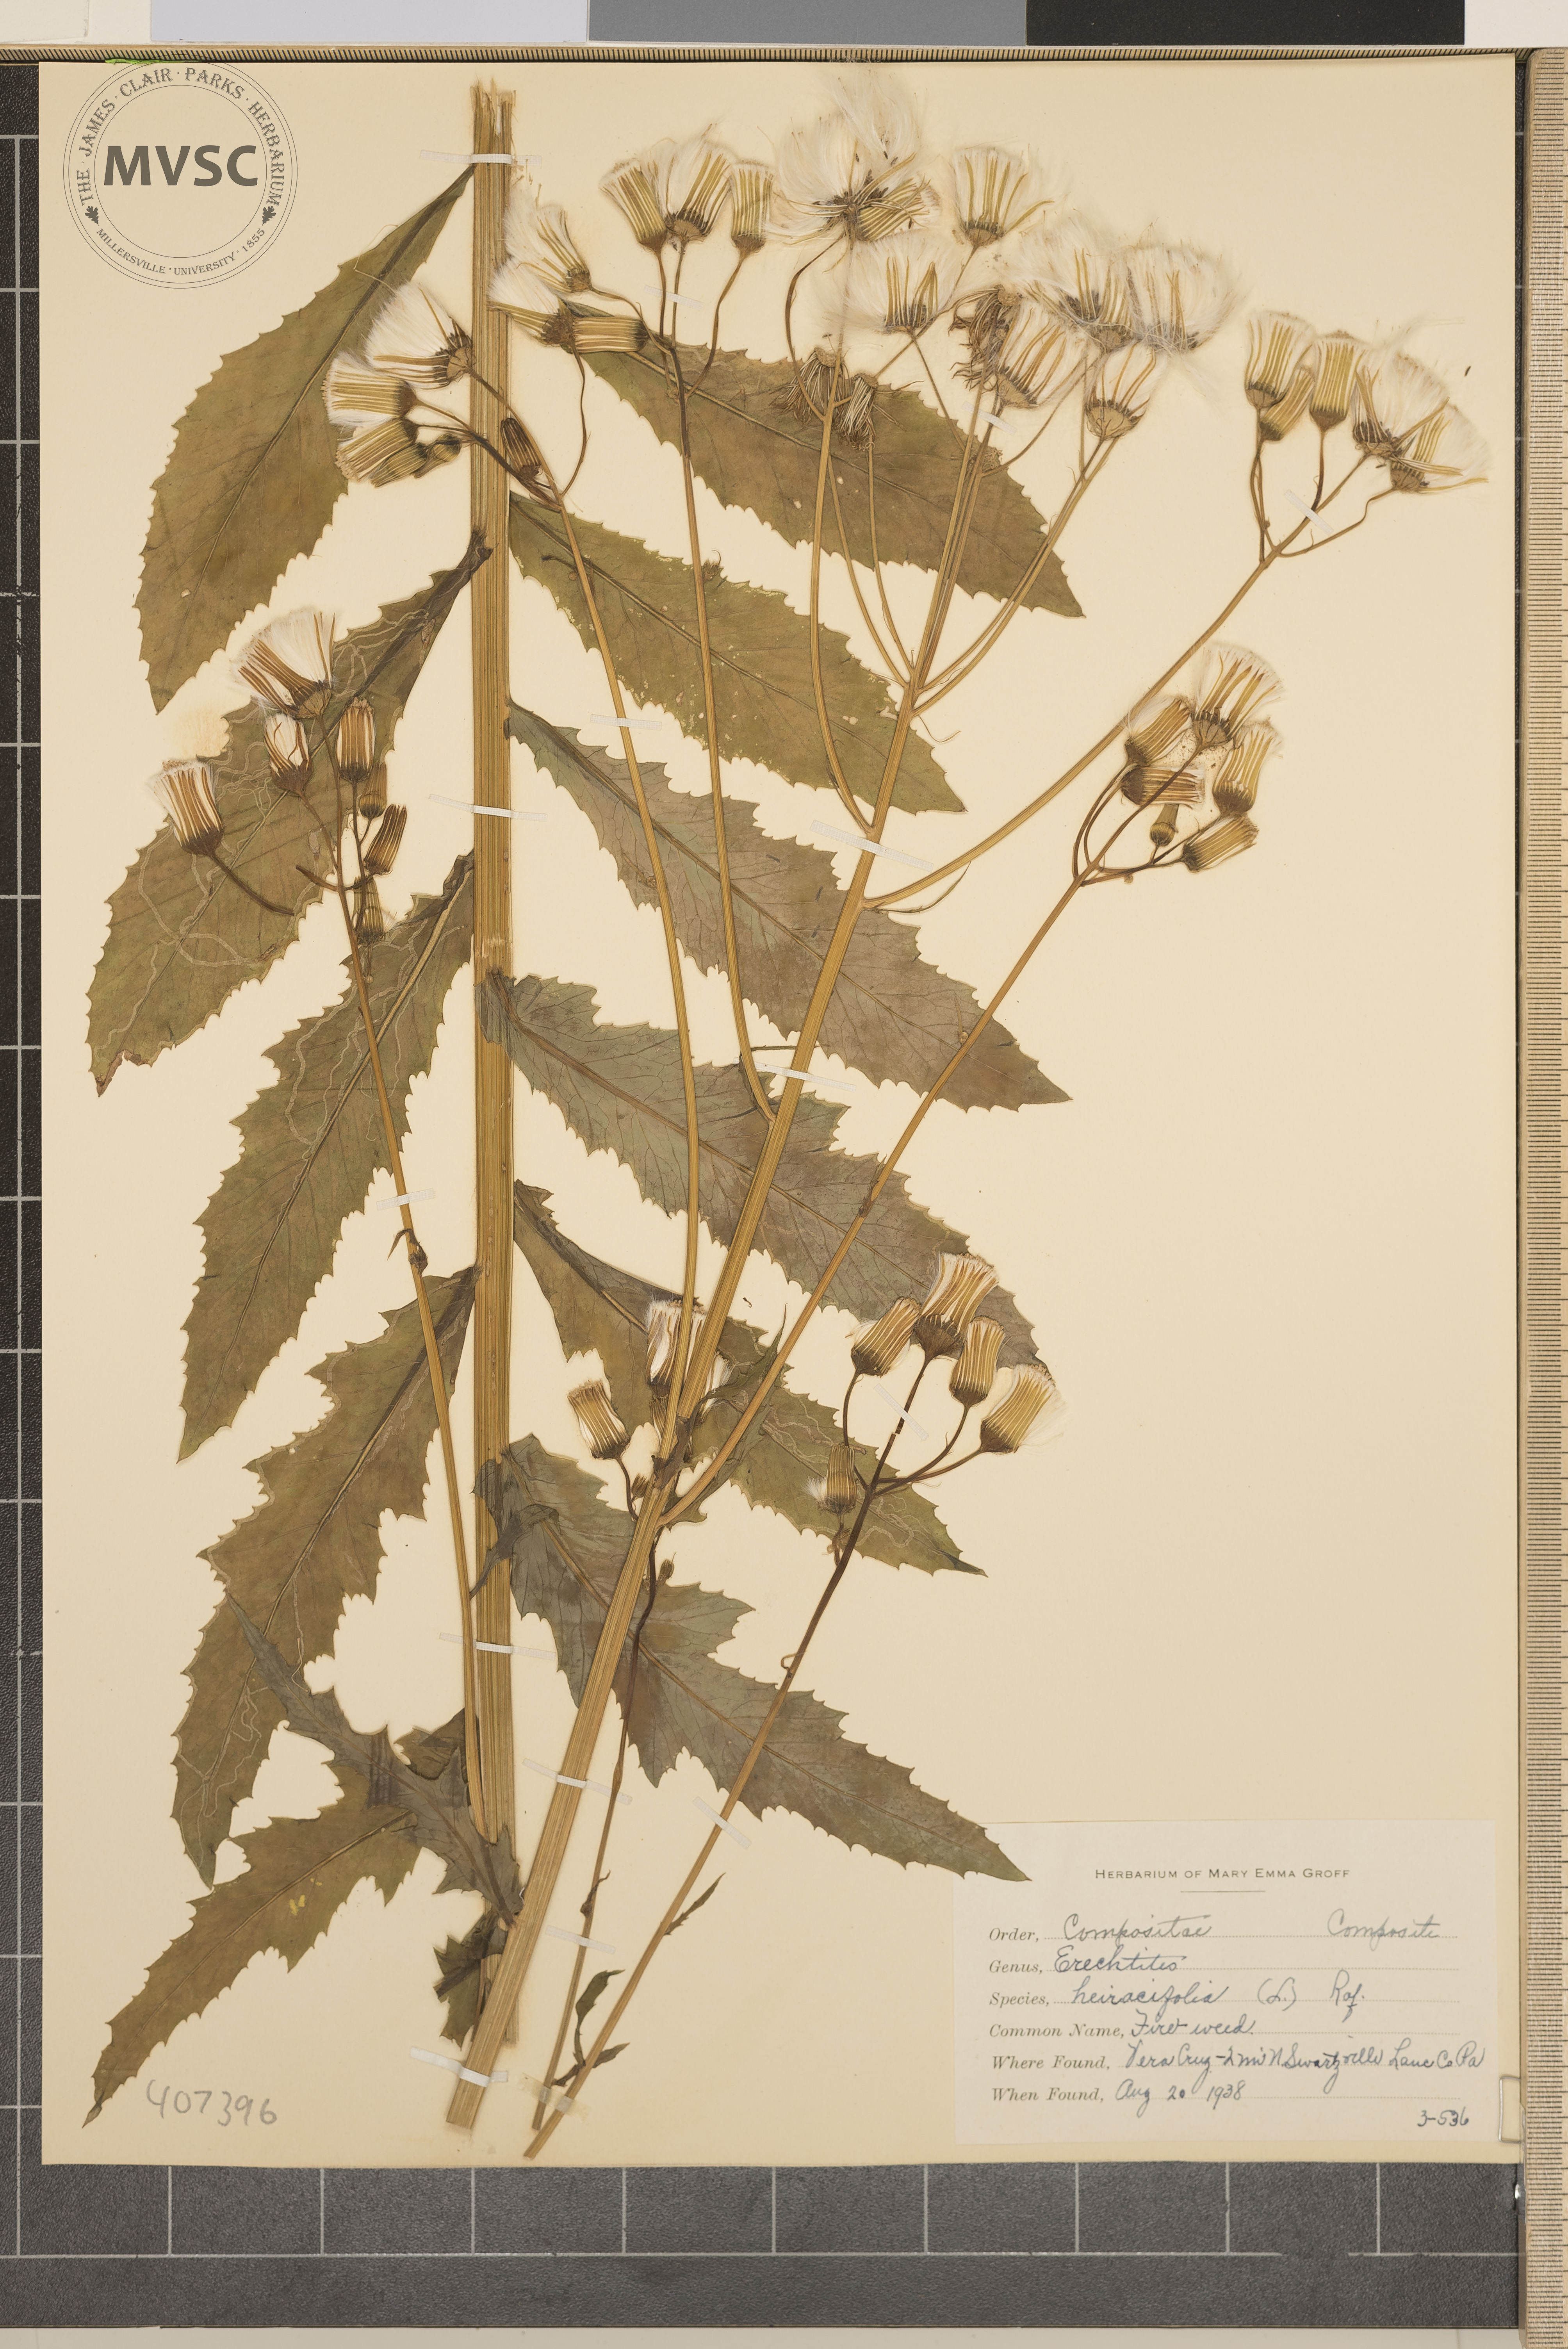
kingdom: Plantae
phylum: Tracheophyta
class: Magnoliopsida
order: Asterales
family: Asteraceae
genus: Erechtites
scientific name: Erechtites hieraciifolius
